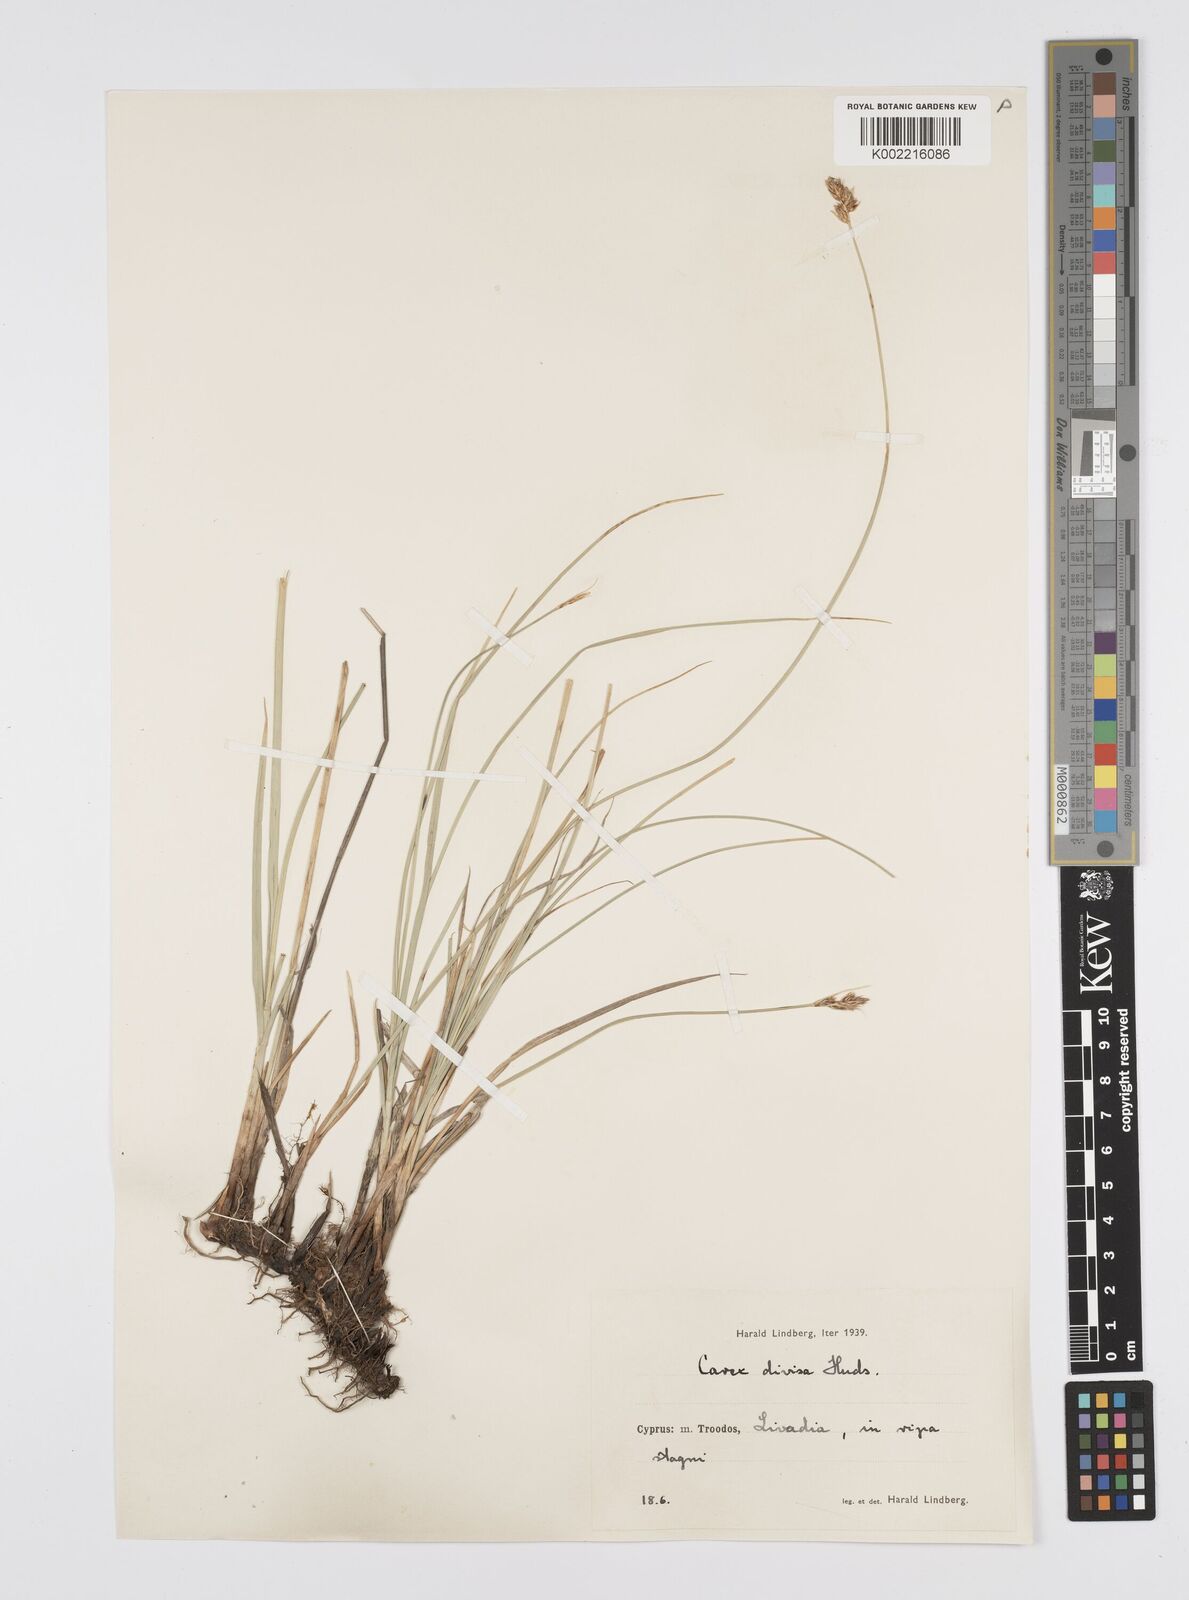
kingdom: Plantae
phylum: Tracheophyta
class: Liliopsida
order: Poales
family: Cyperaceae
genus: Carex
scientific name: Carex divisa
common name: Divided sedge
